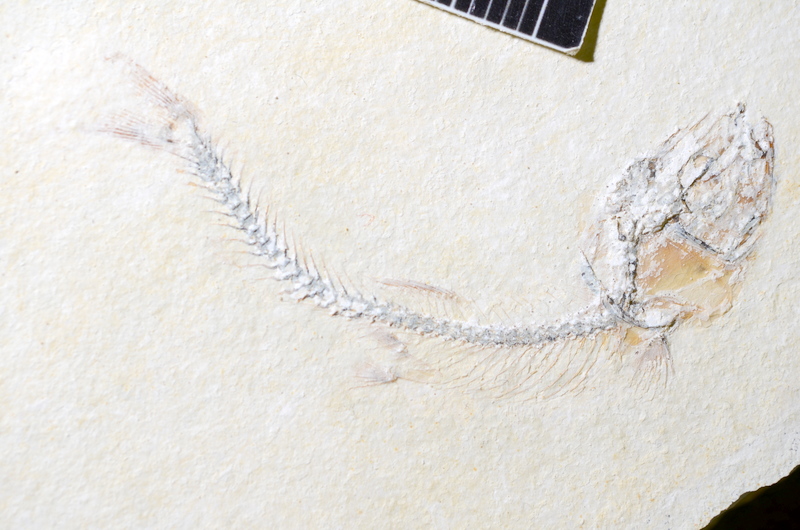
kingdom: Animalia
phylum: Chordata
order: Salmoniformes
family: Orthogonikleithridae
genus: Orthogonikleithrus
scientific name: Orthogonikleithrus hoelli
